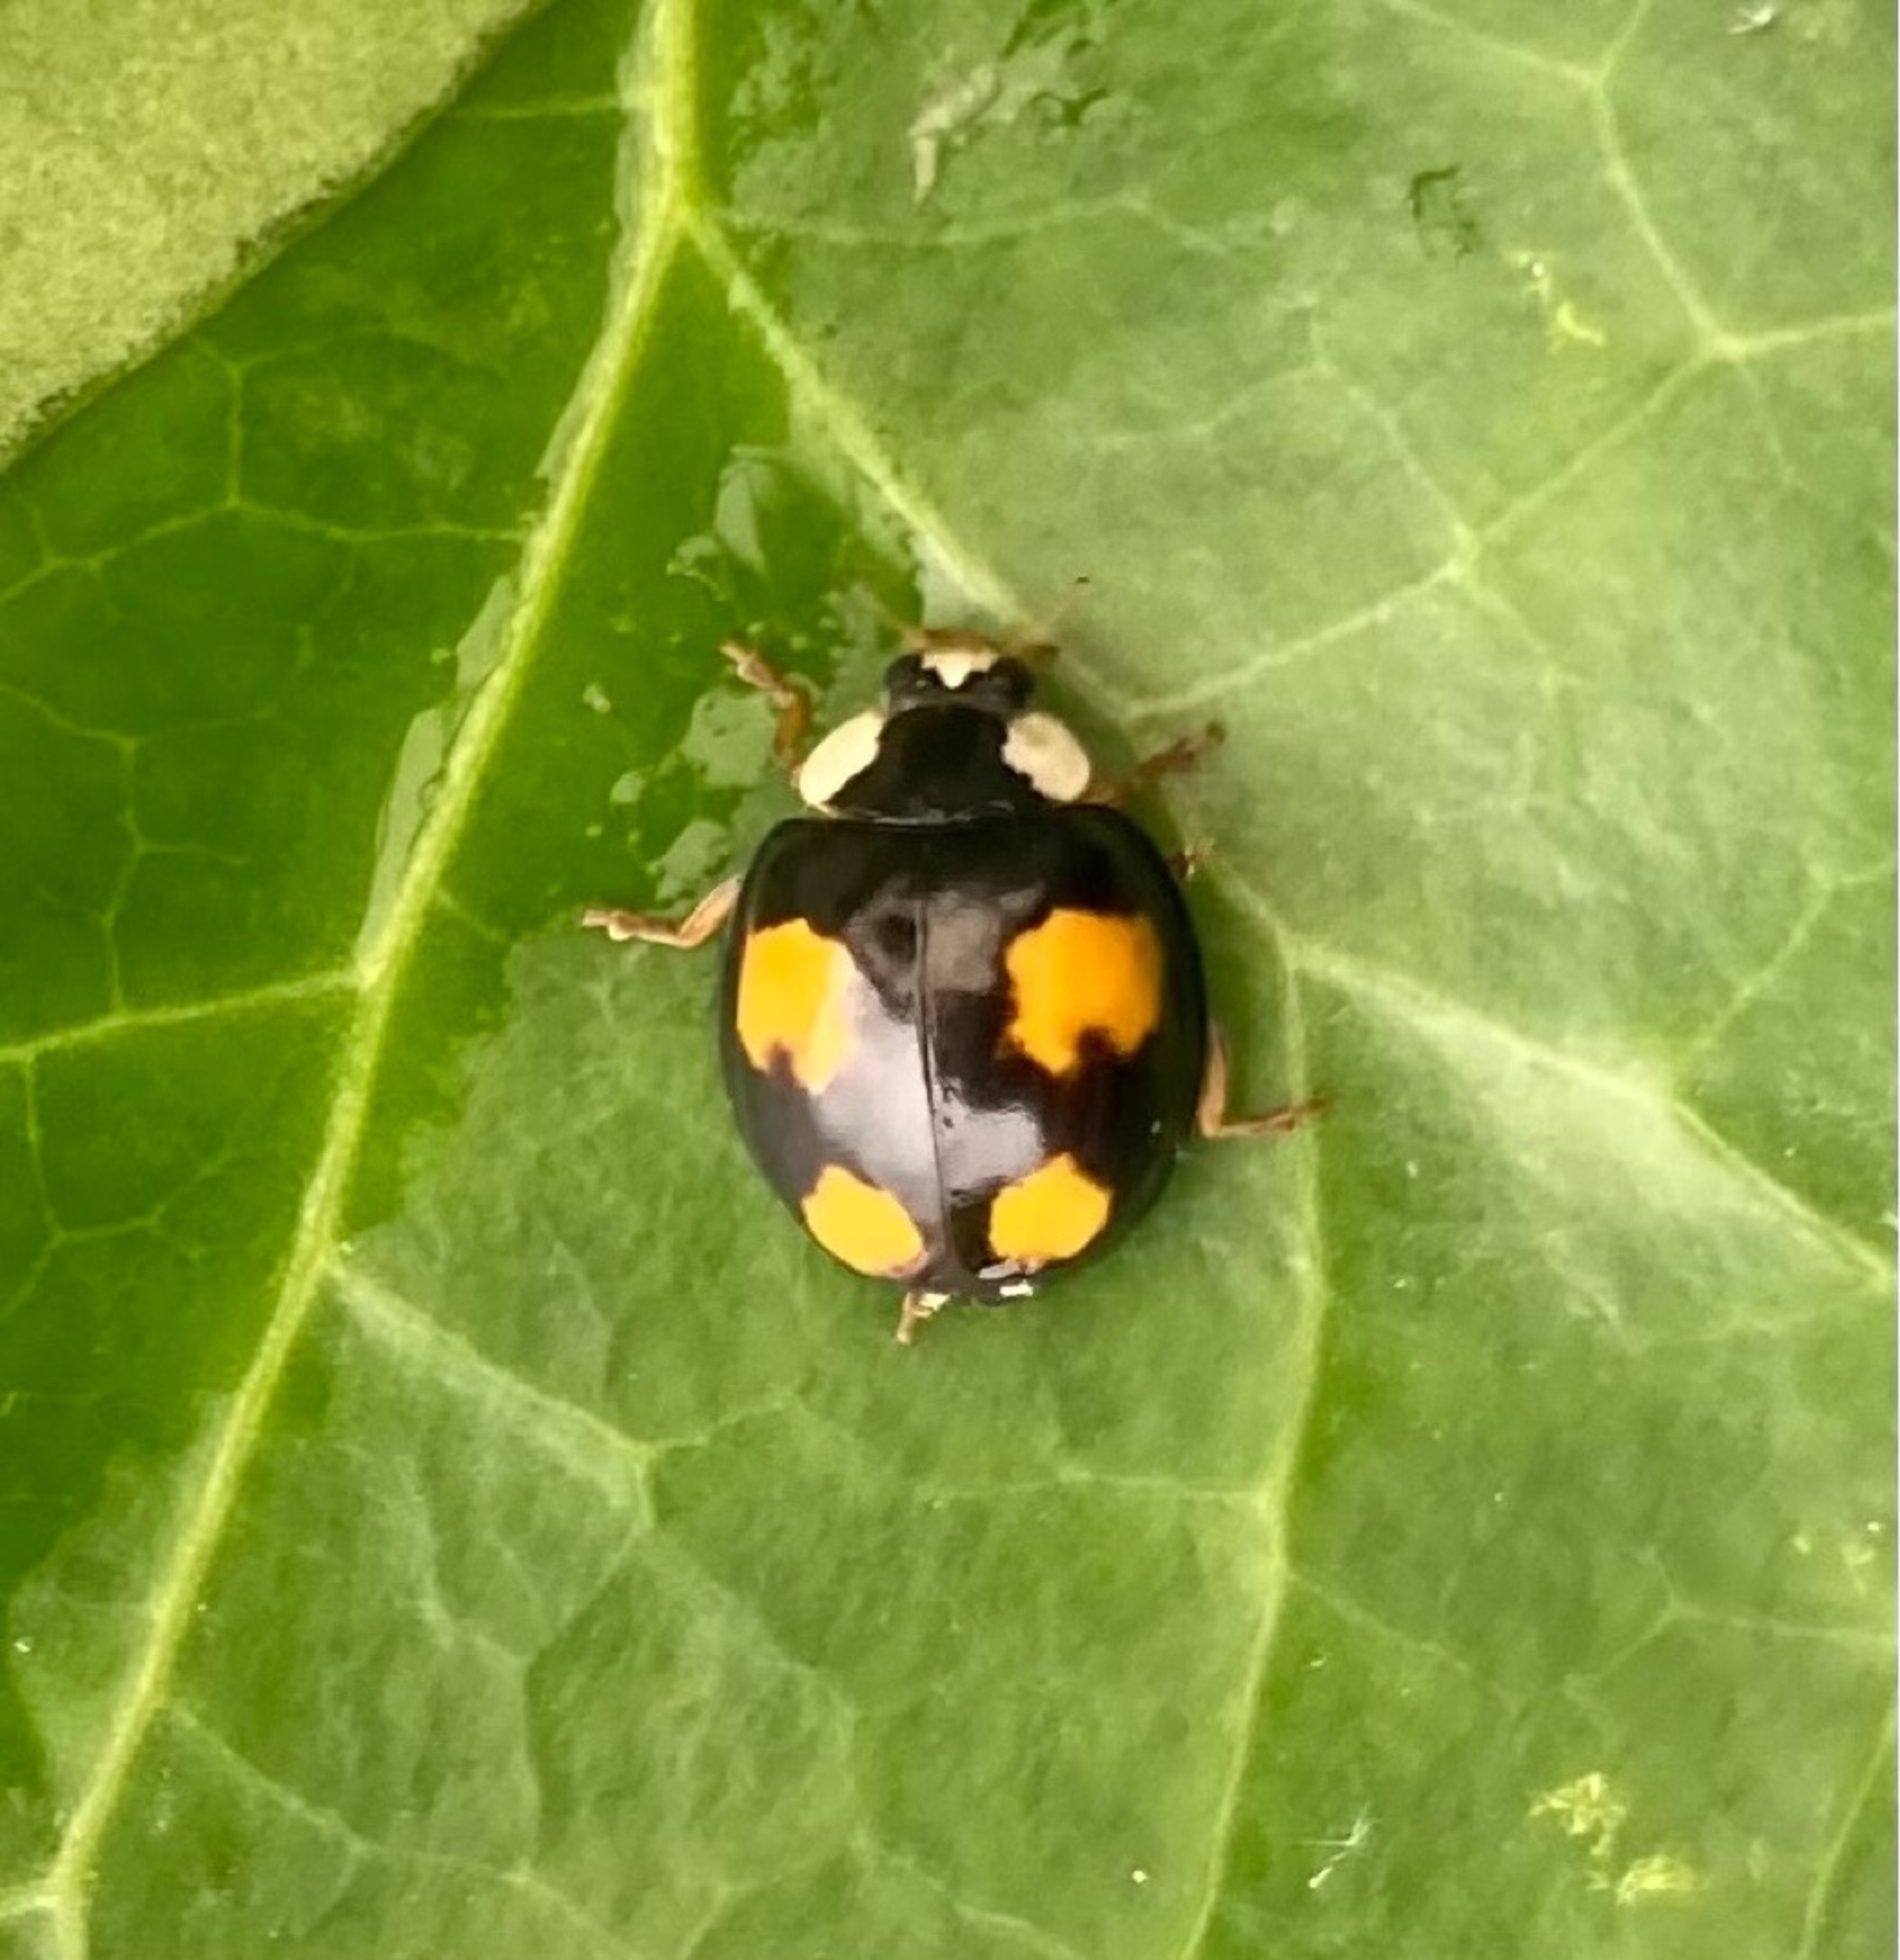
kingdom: Animalia
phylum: Arthropoda
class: Insecta
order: Coleoptera
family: Coccinellidae
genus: Harmonia
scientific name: Harmonia axyridis
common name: Harlekinmariehøne
